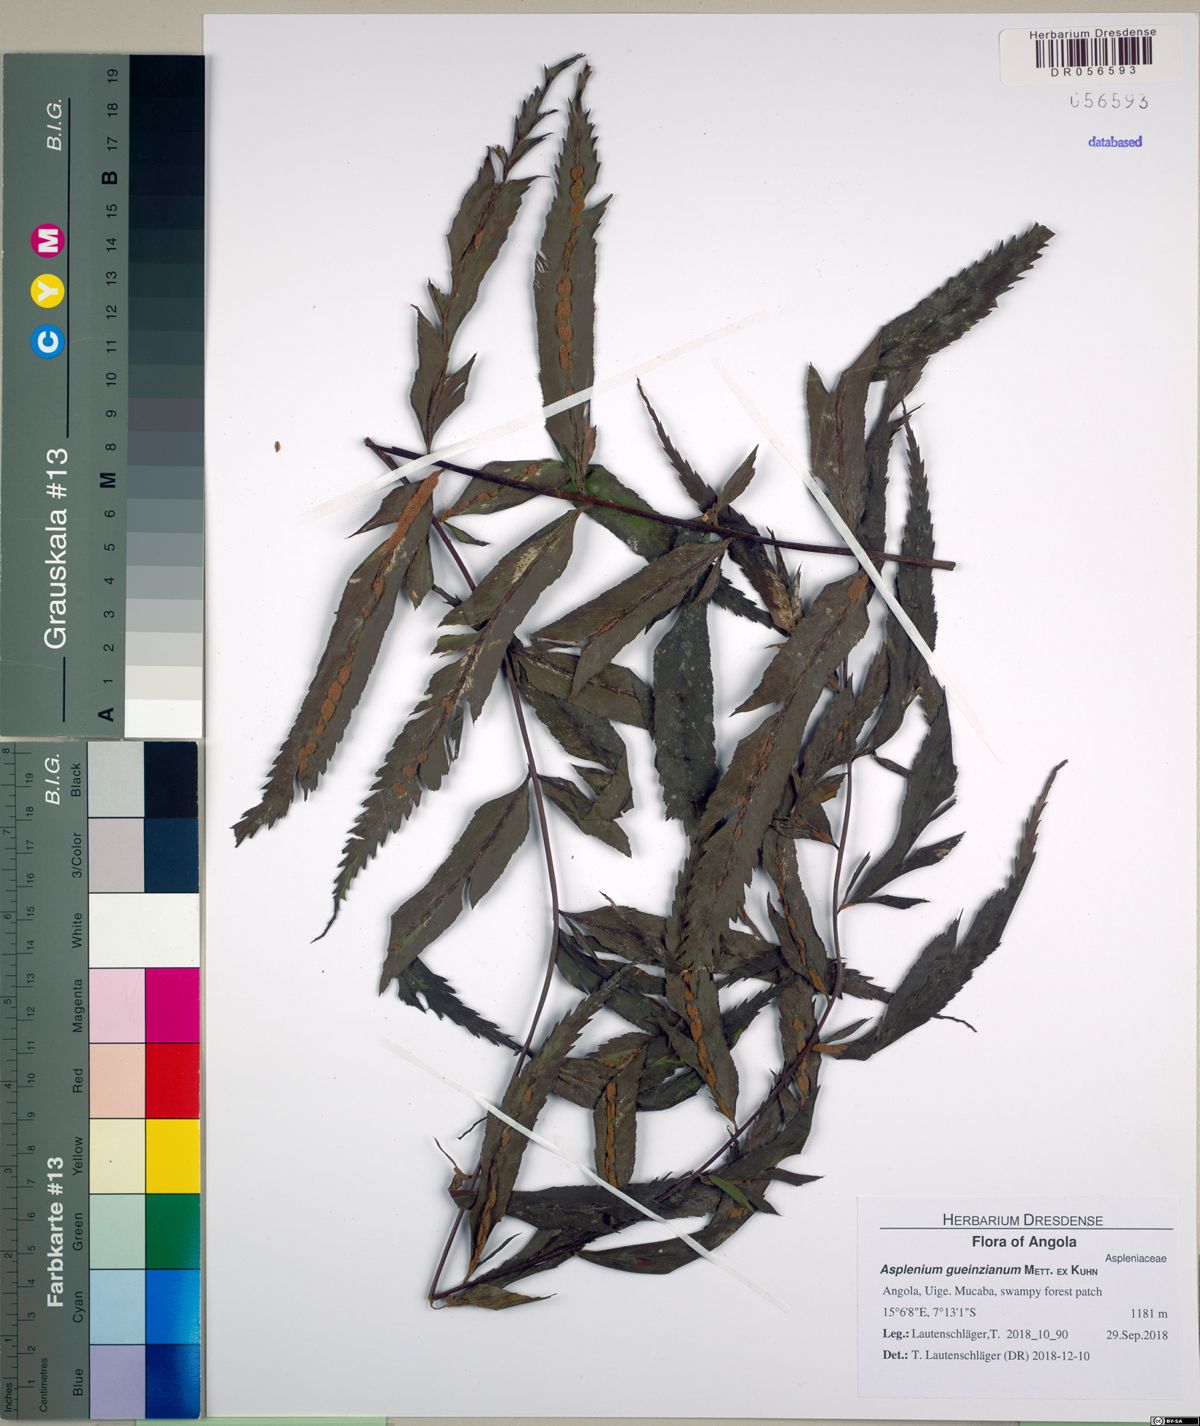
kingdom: Plantae
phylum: Tracheophyta
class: Polypodiopsida
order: Polypodiales
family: Aspleniaceae
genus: Asplenium
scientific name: Asplenium lacinioides
